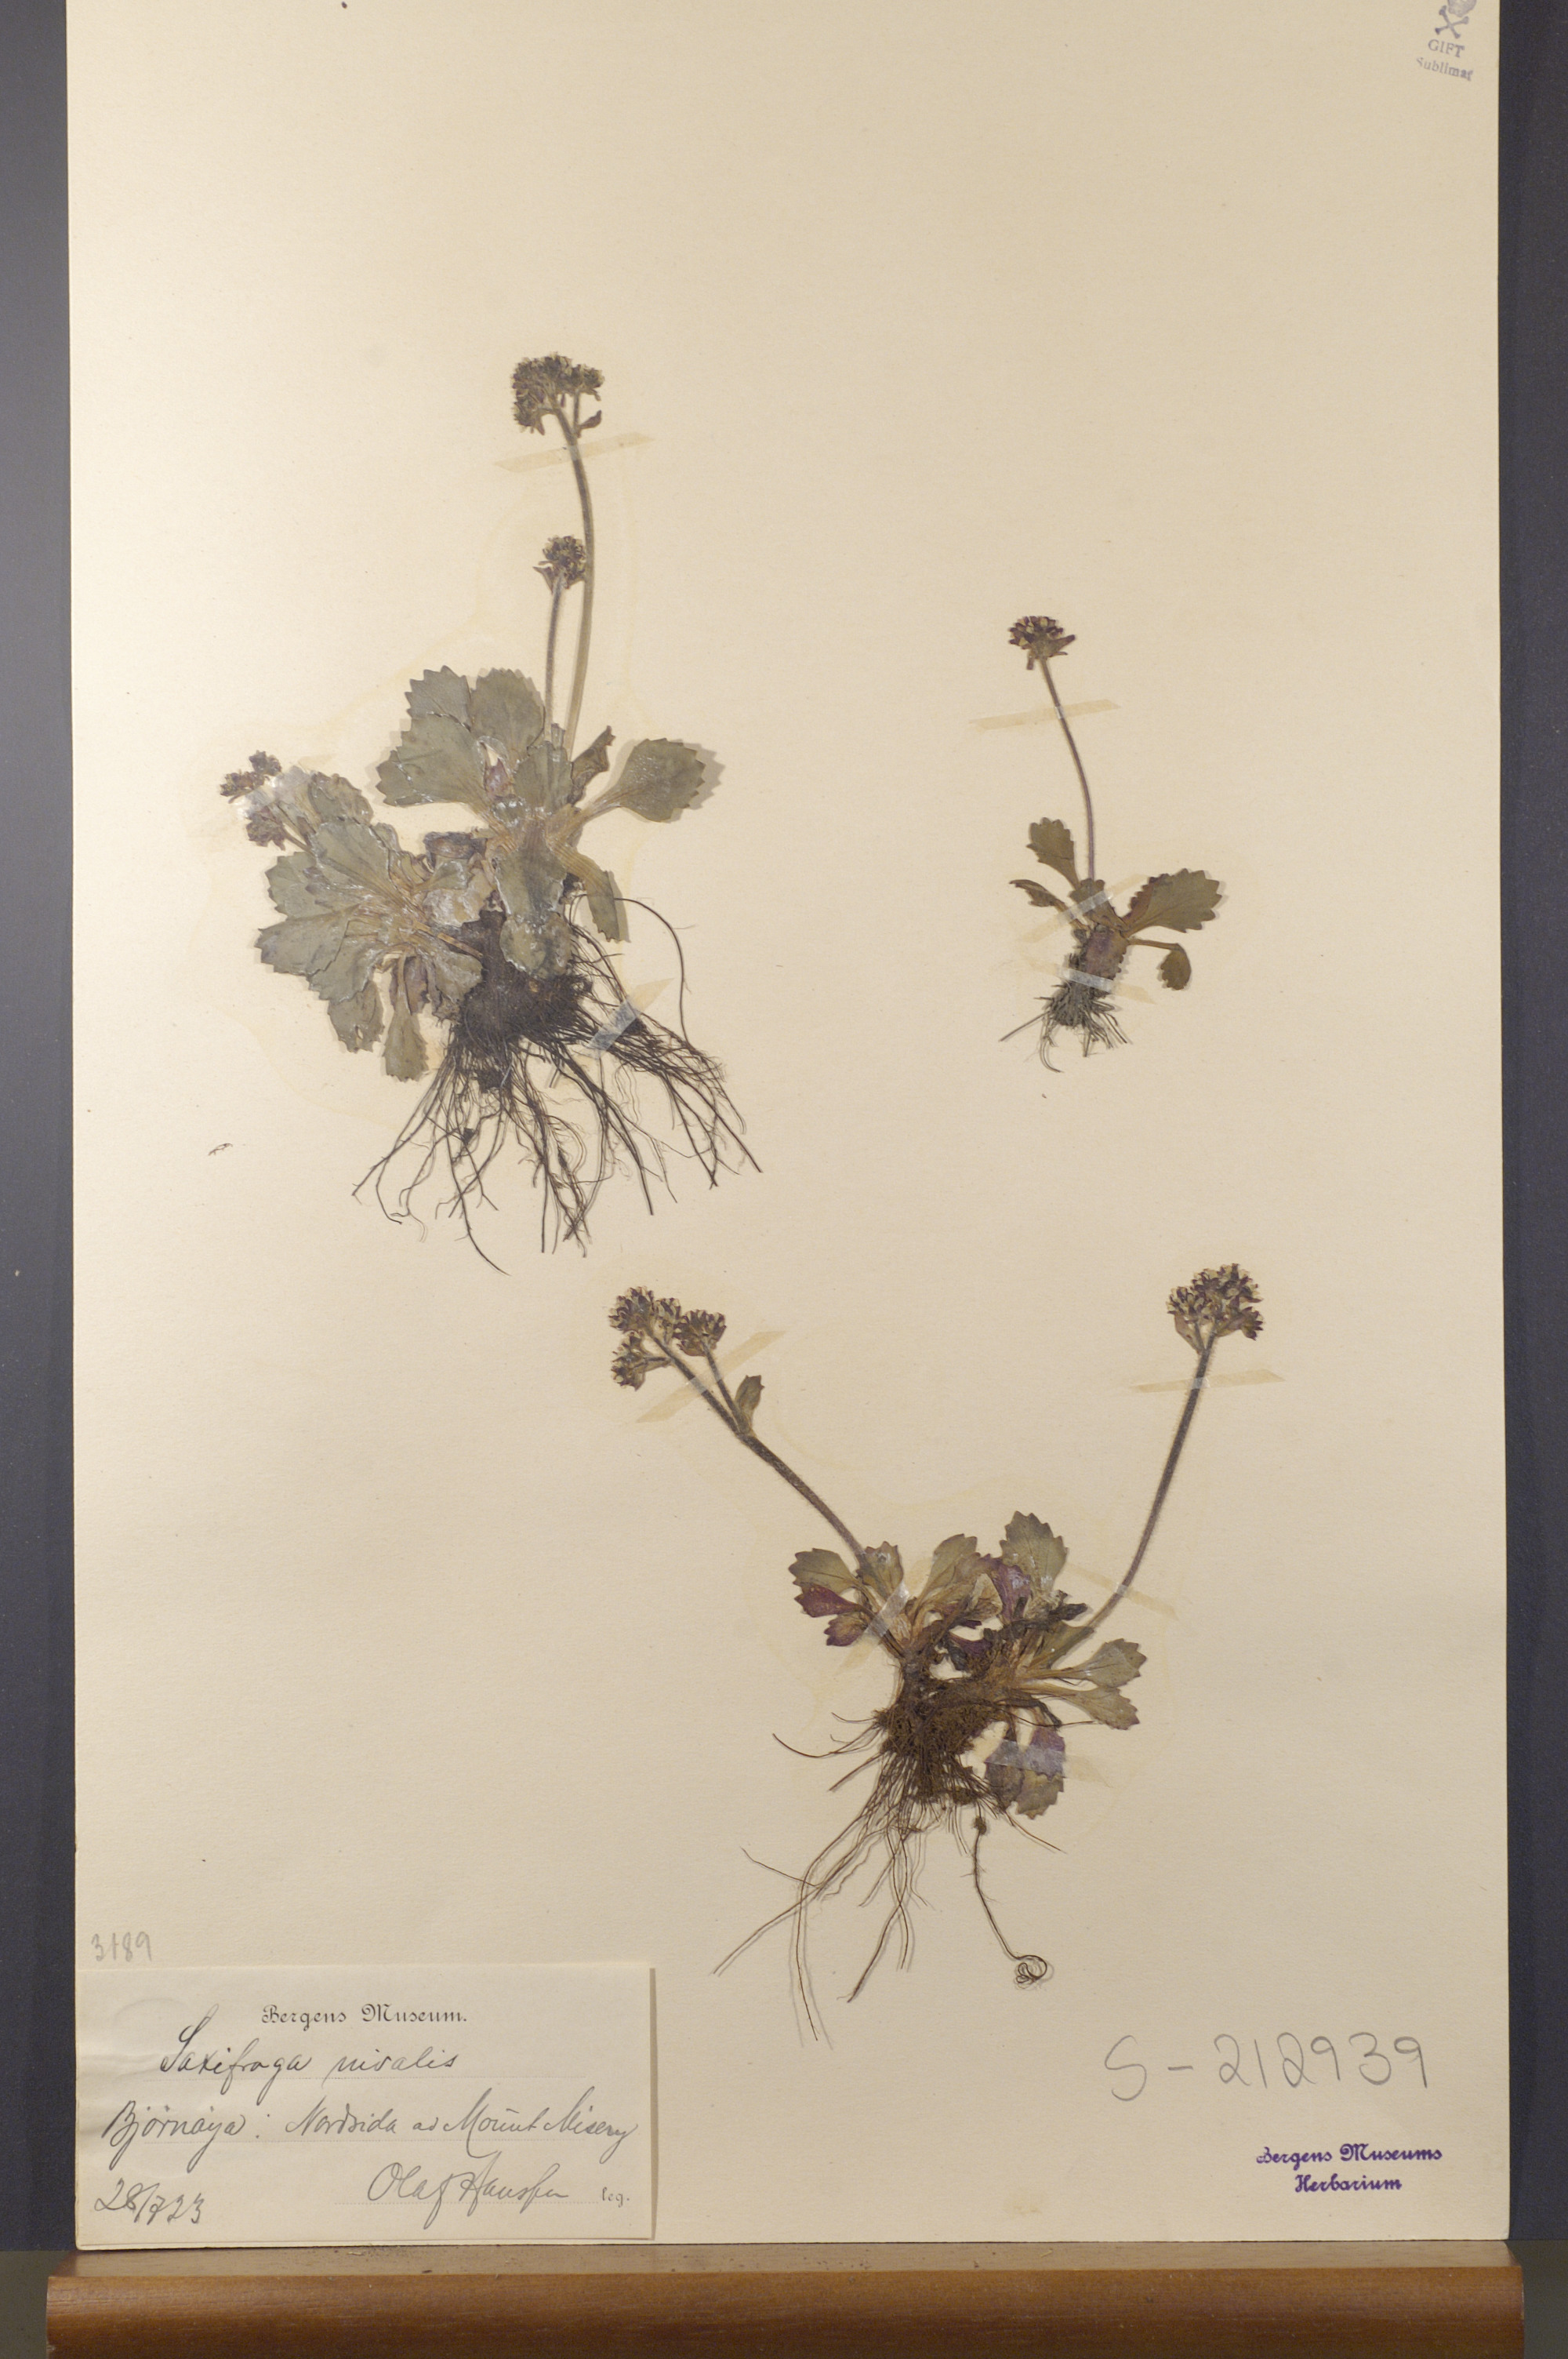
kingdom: Plantae
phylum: Tracheophyta
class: Magnoliopsida
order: Saxifragales
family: Saxifragaceae
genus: Micranthes
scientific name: Micranthes nivalis
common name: Alpine saxifrage
